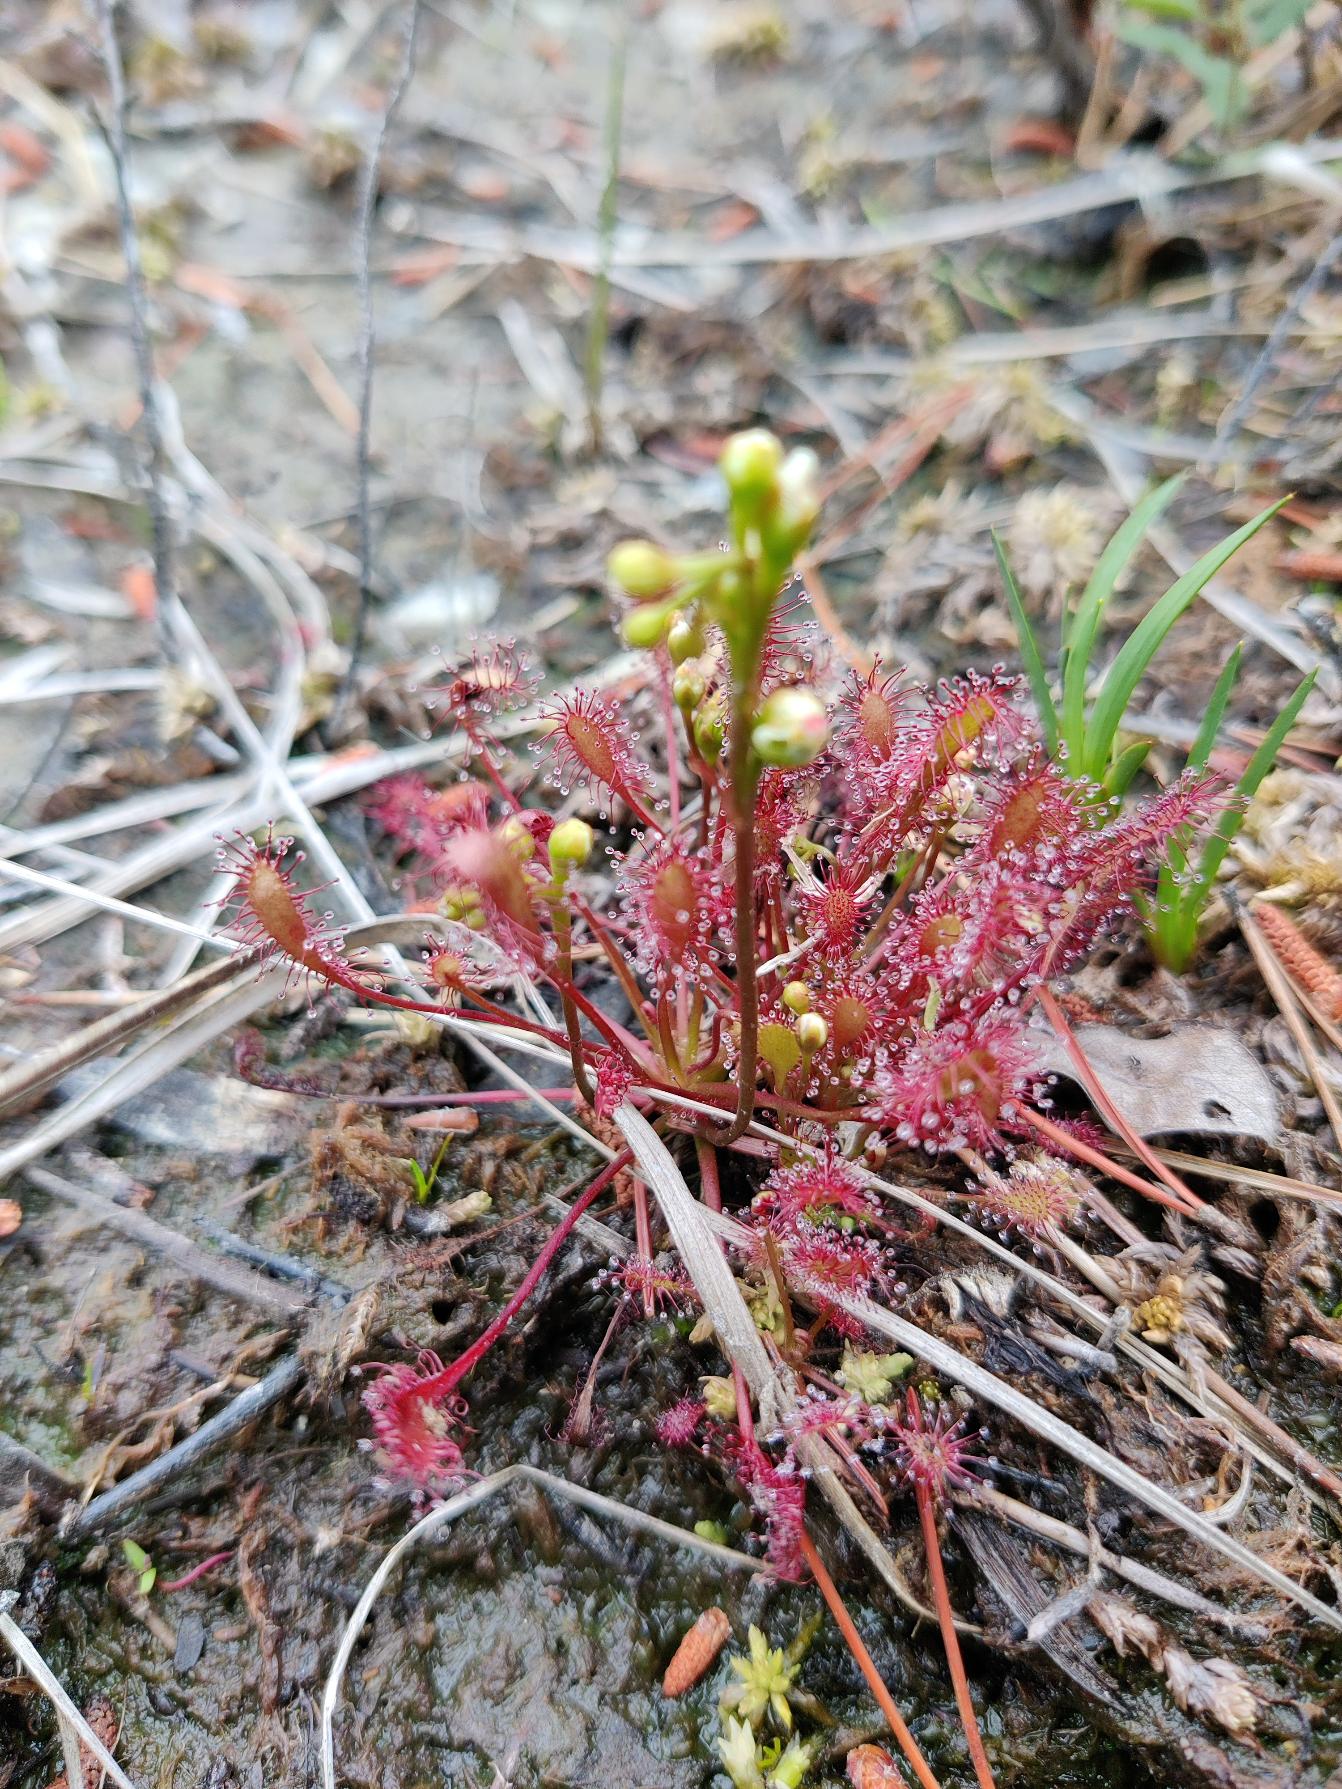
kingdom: Plantae
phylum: Tracheophyta
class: Magnoliopsida
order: Caryophyllales
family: Droseraceae
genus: Drosera
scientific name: Drosera rotundifolia
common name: Rundbladet soldug
